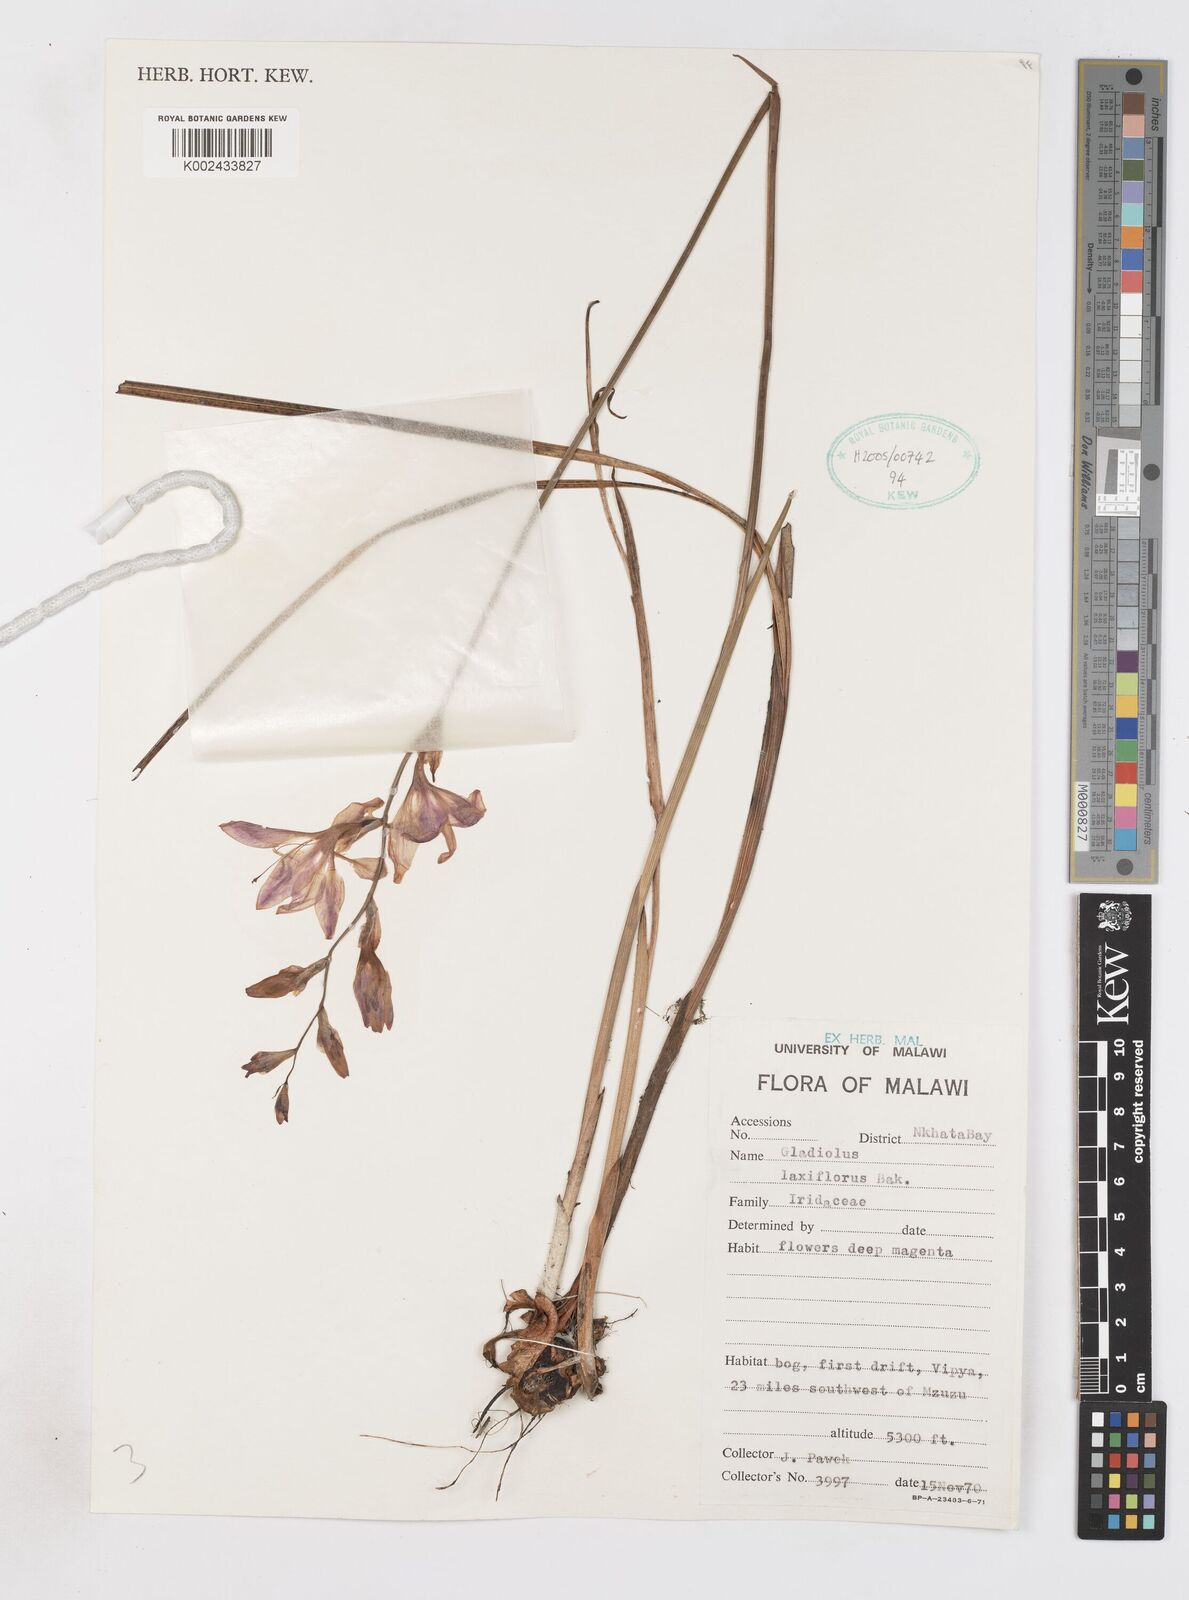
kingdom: Plantae
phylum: Tracheophyta
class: Liliopsida
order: Asparagales
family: Iridaceae
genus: Gladiolus
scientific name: Gladiolus laxiflorus
